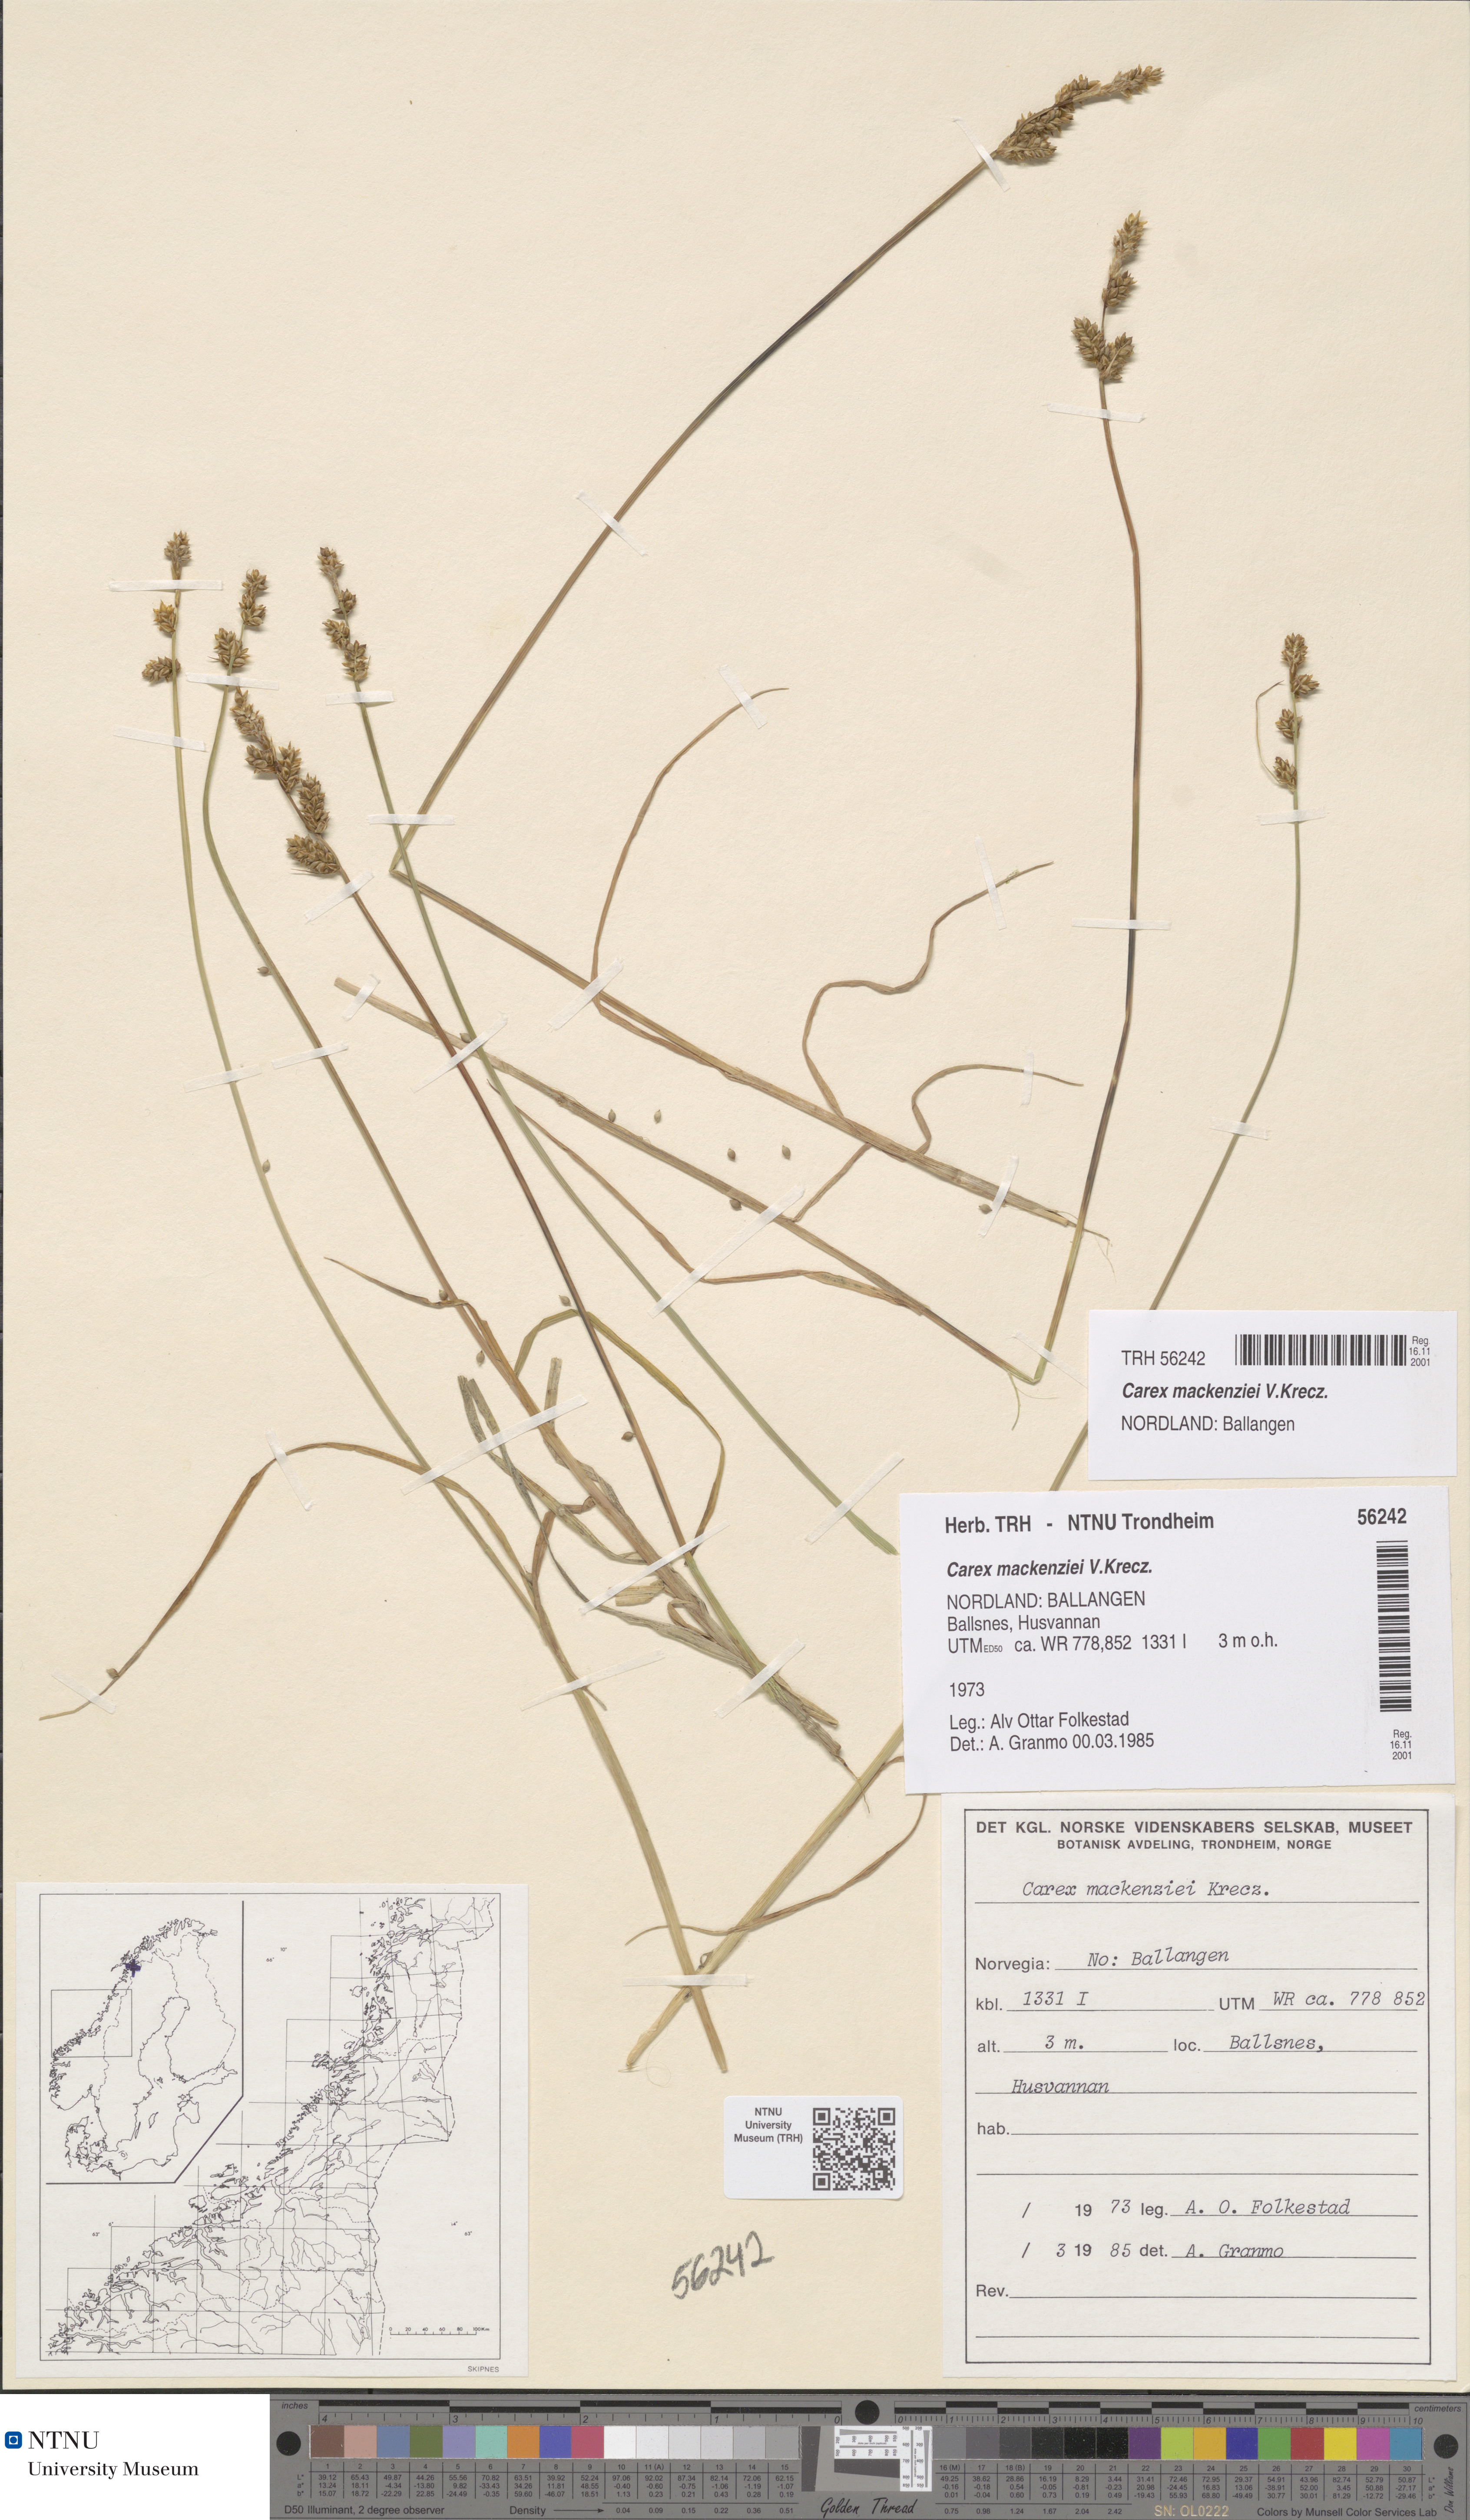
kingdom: Plantae
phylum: Tracheophyta
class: Liliopsida
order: Poales
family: Cyperaceae
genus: Carex
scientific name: Carex mackenziei
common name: Mackenzie's sedge
